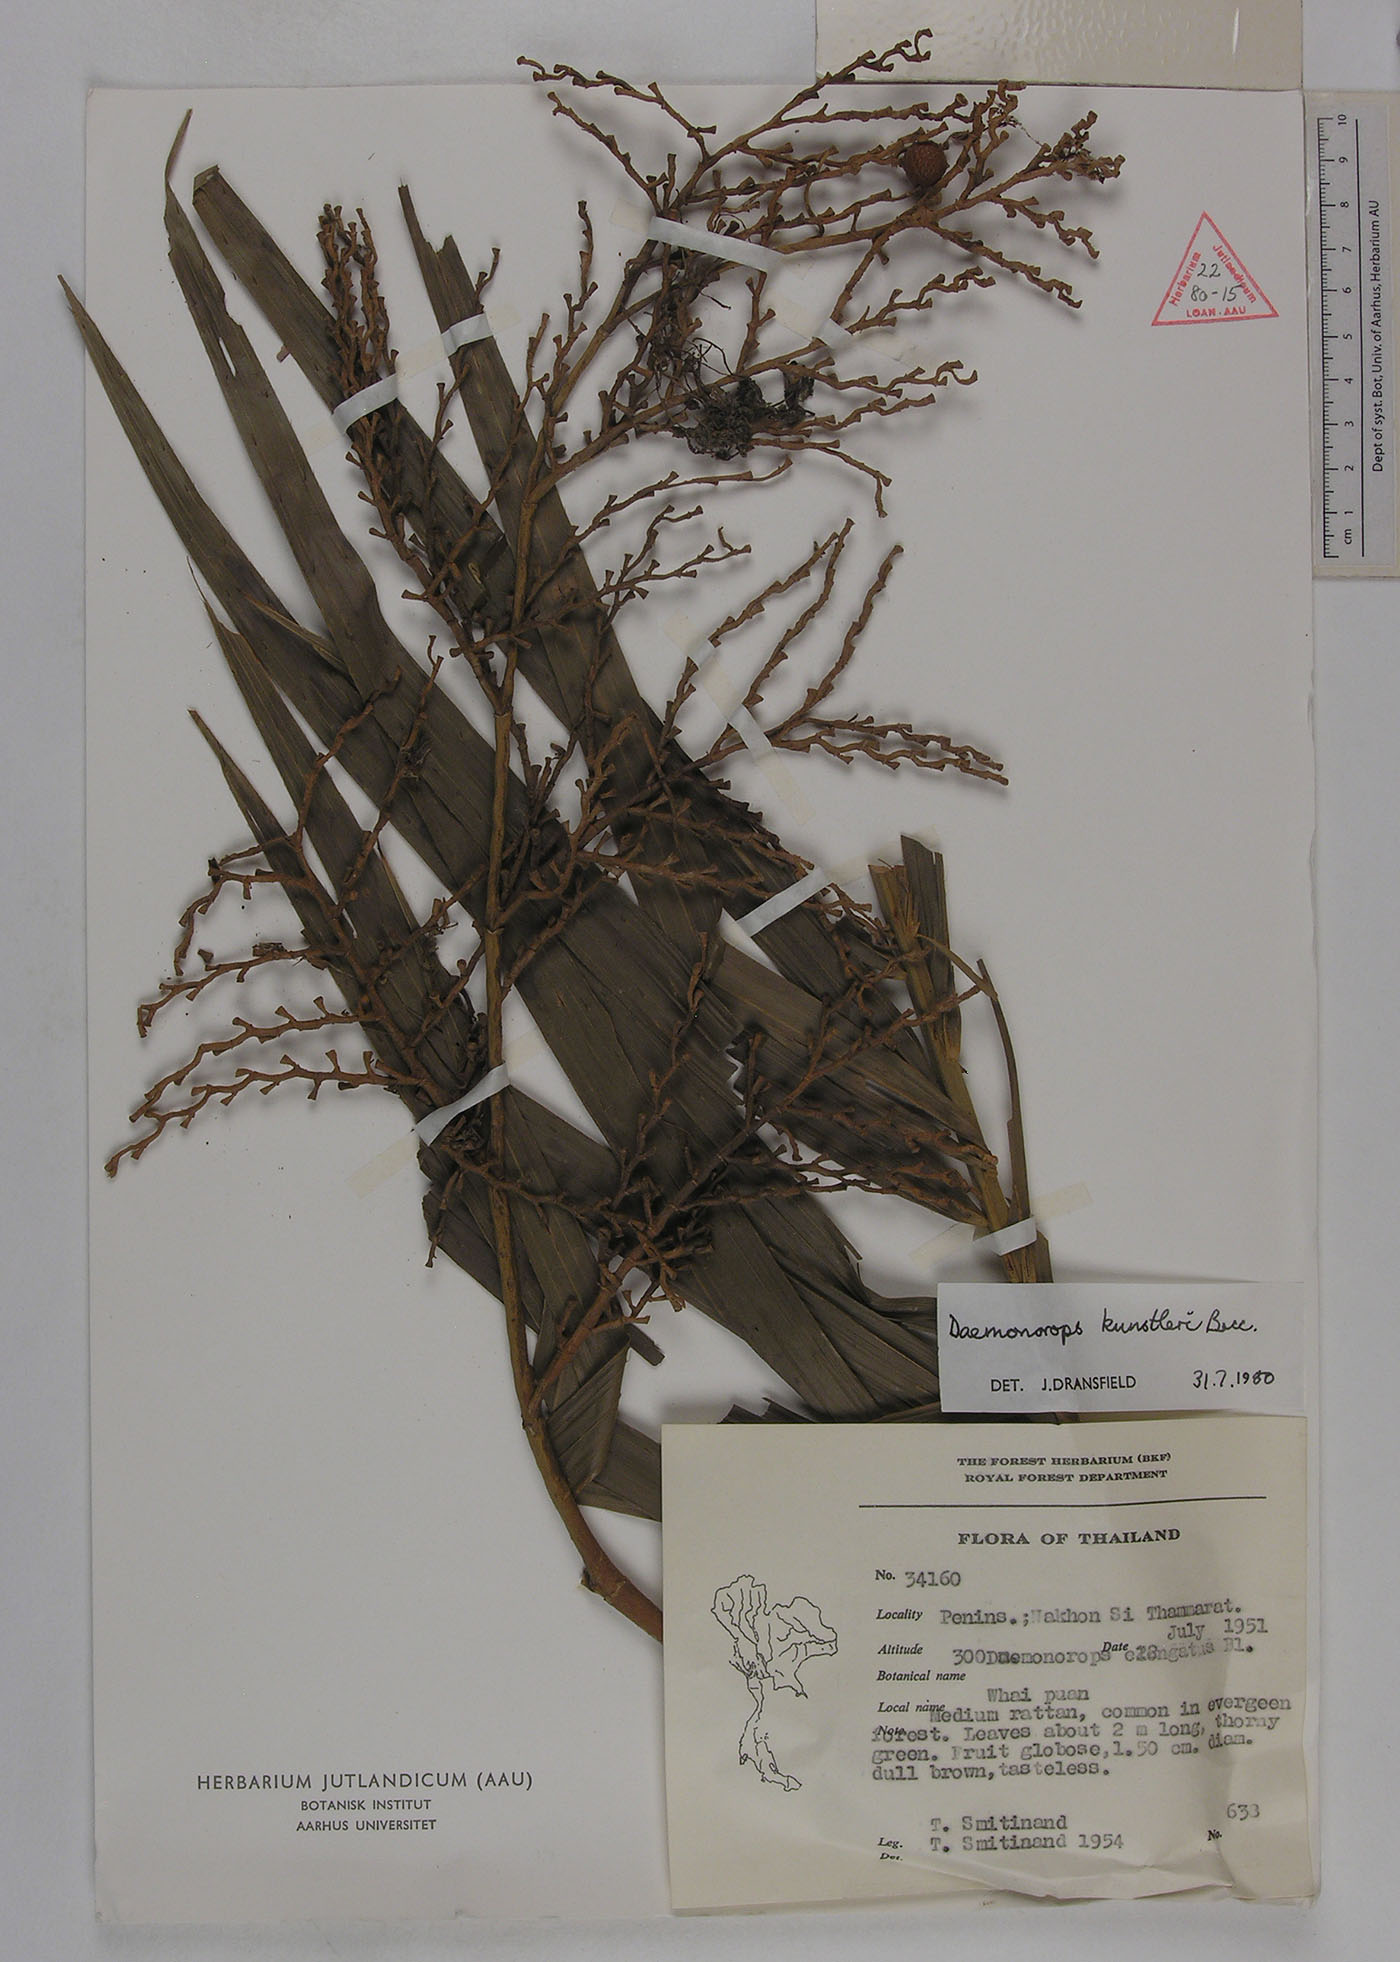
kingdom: Plantae
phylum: Tracheophyta
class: Liliopsida
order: Arecales
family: Arecaceae
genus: Calamus
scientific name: Calamus kunstleri
